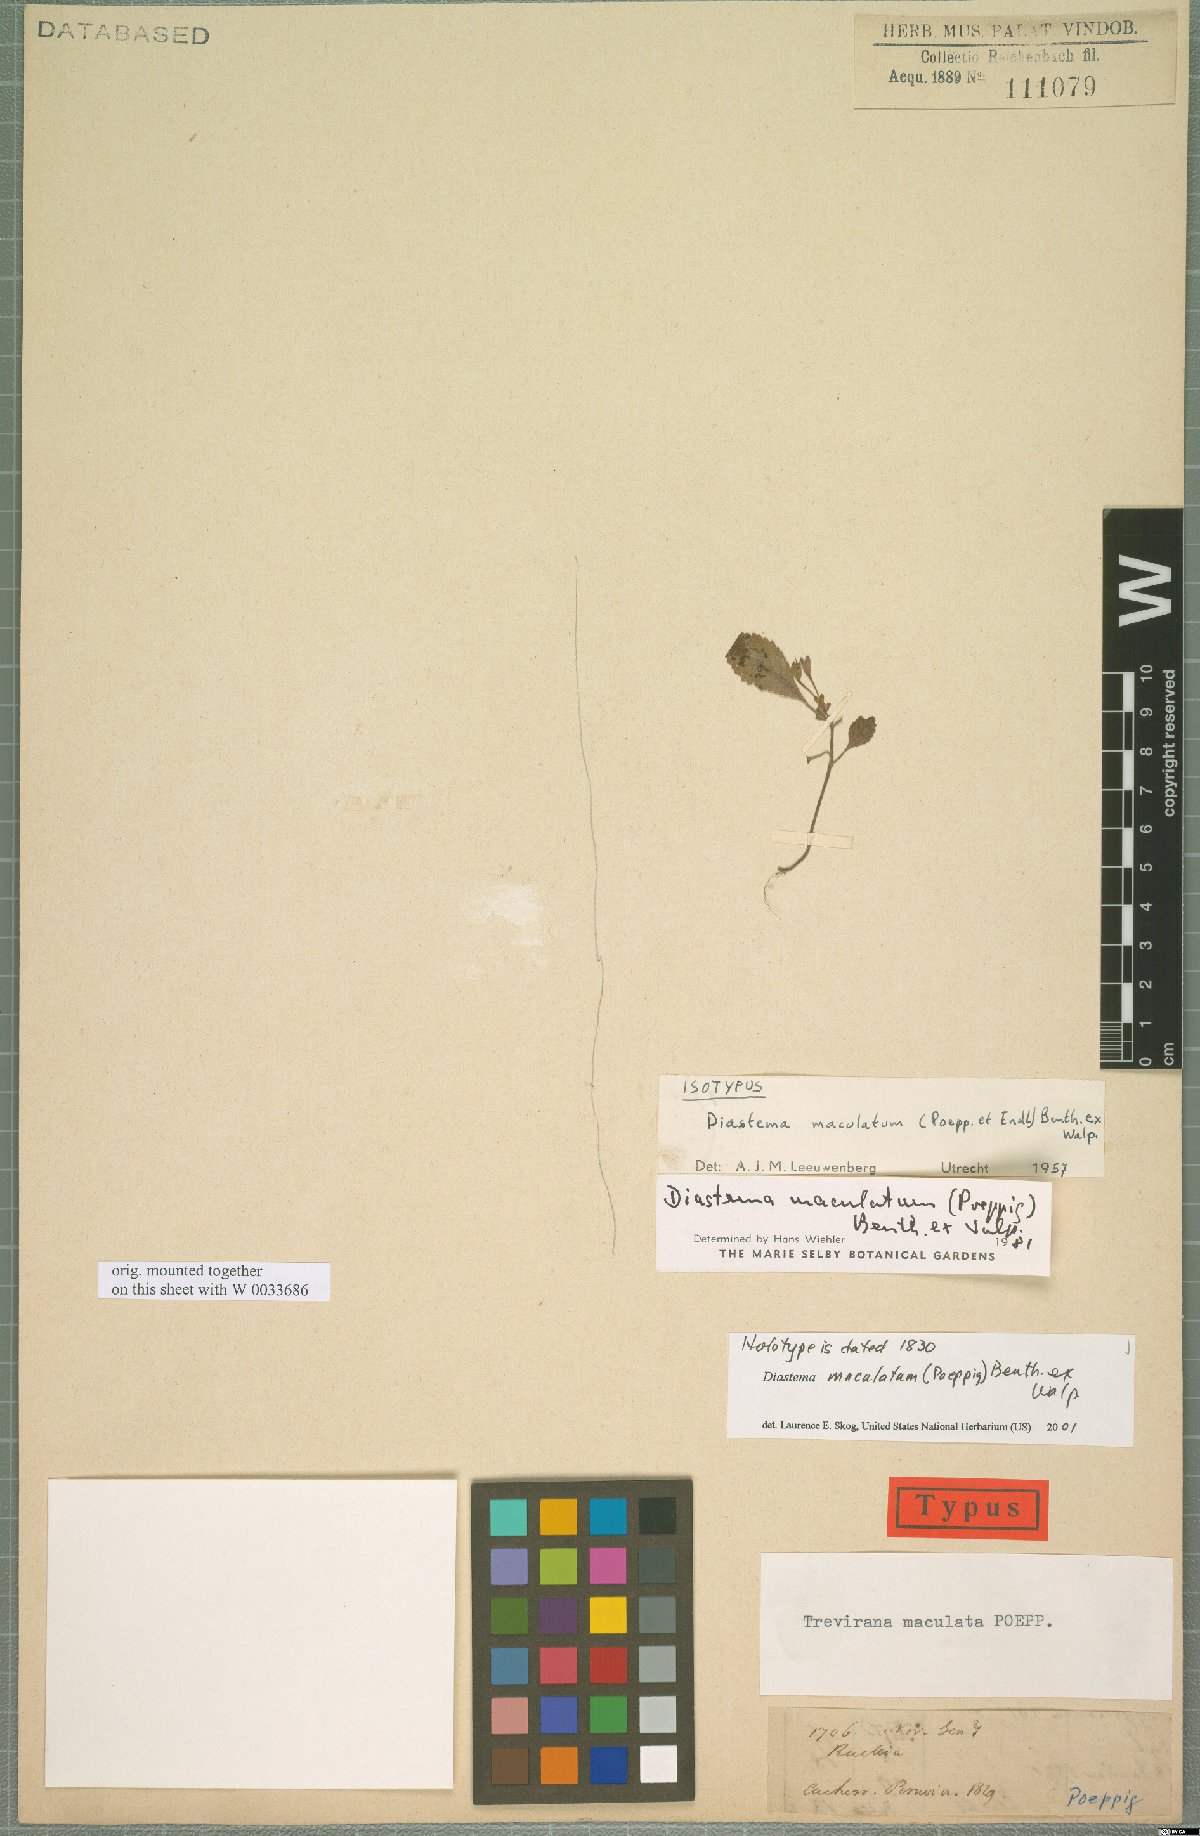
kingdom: Plantae
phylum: Tracheophyta
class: Magnoliopsida
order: Lamiales
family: Gesneriaceae
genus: Diastema
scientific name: Diastema maculatum
